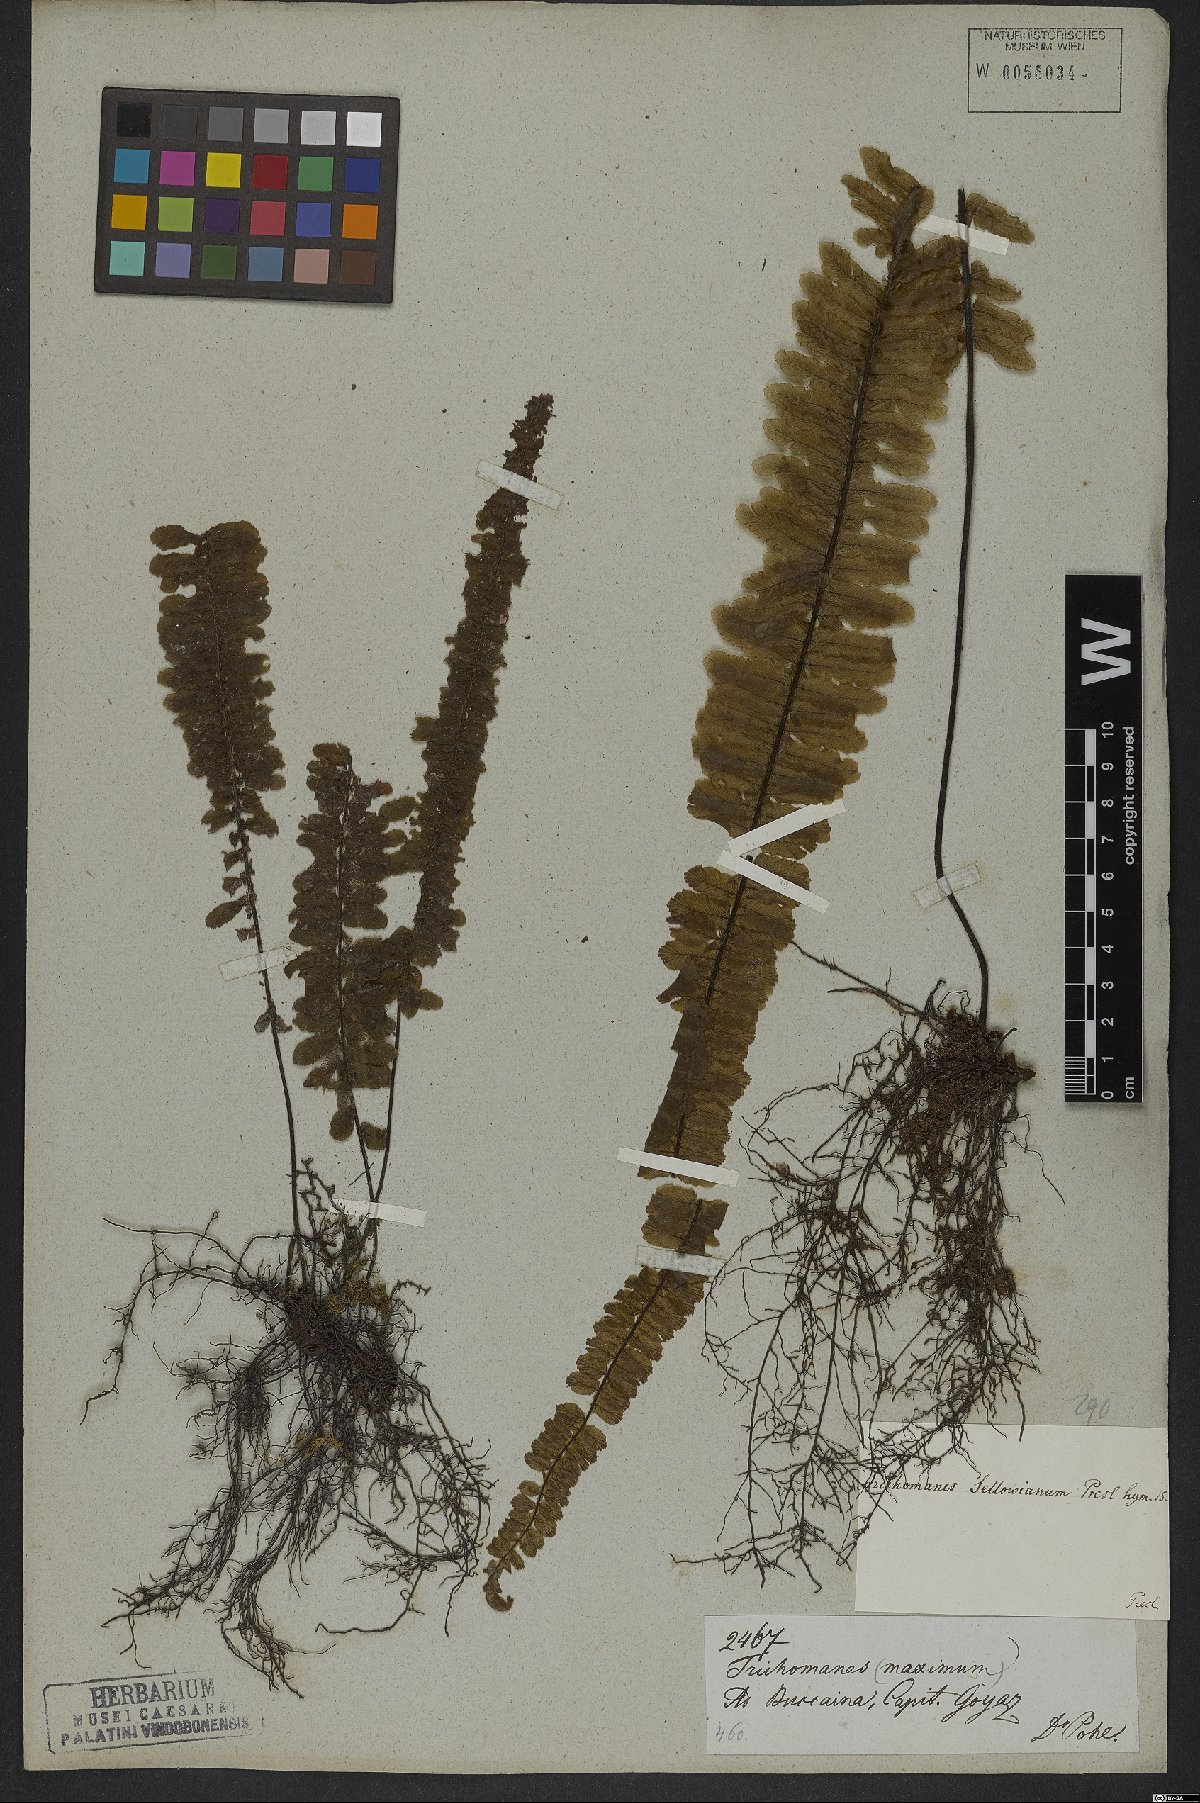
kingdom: Plantae
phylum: Tracheophyta
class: Polypodiopsida
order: Hymenophyllales
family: Hymenophyllaceae
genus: Trichomanes
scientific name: Trichomanes cristatum
